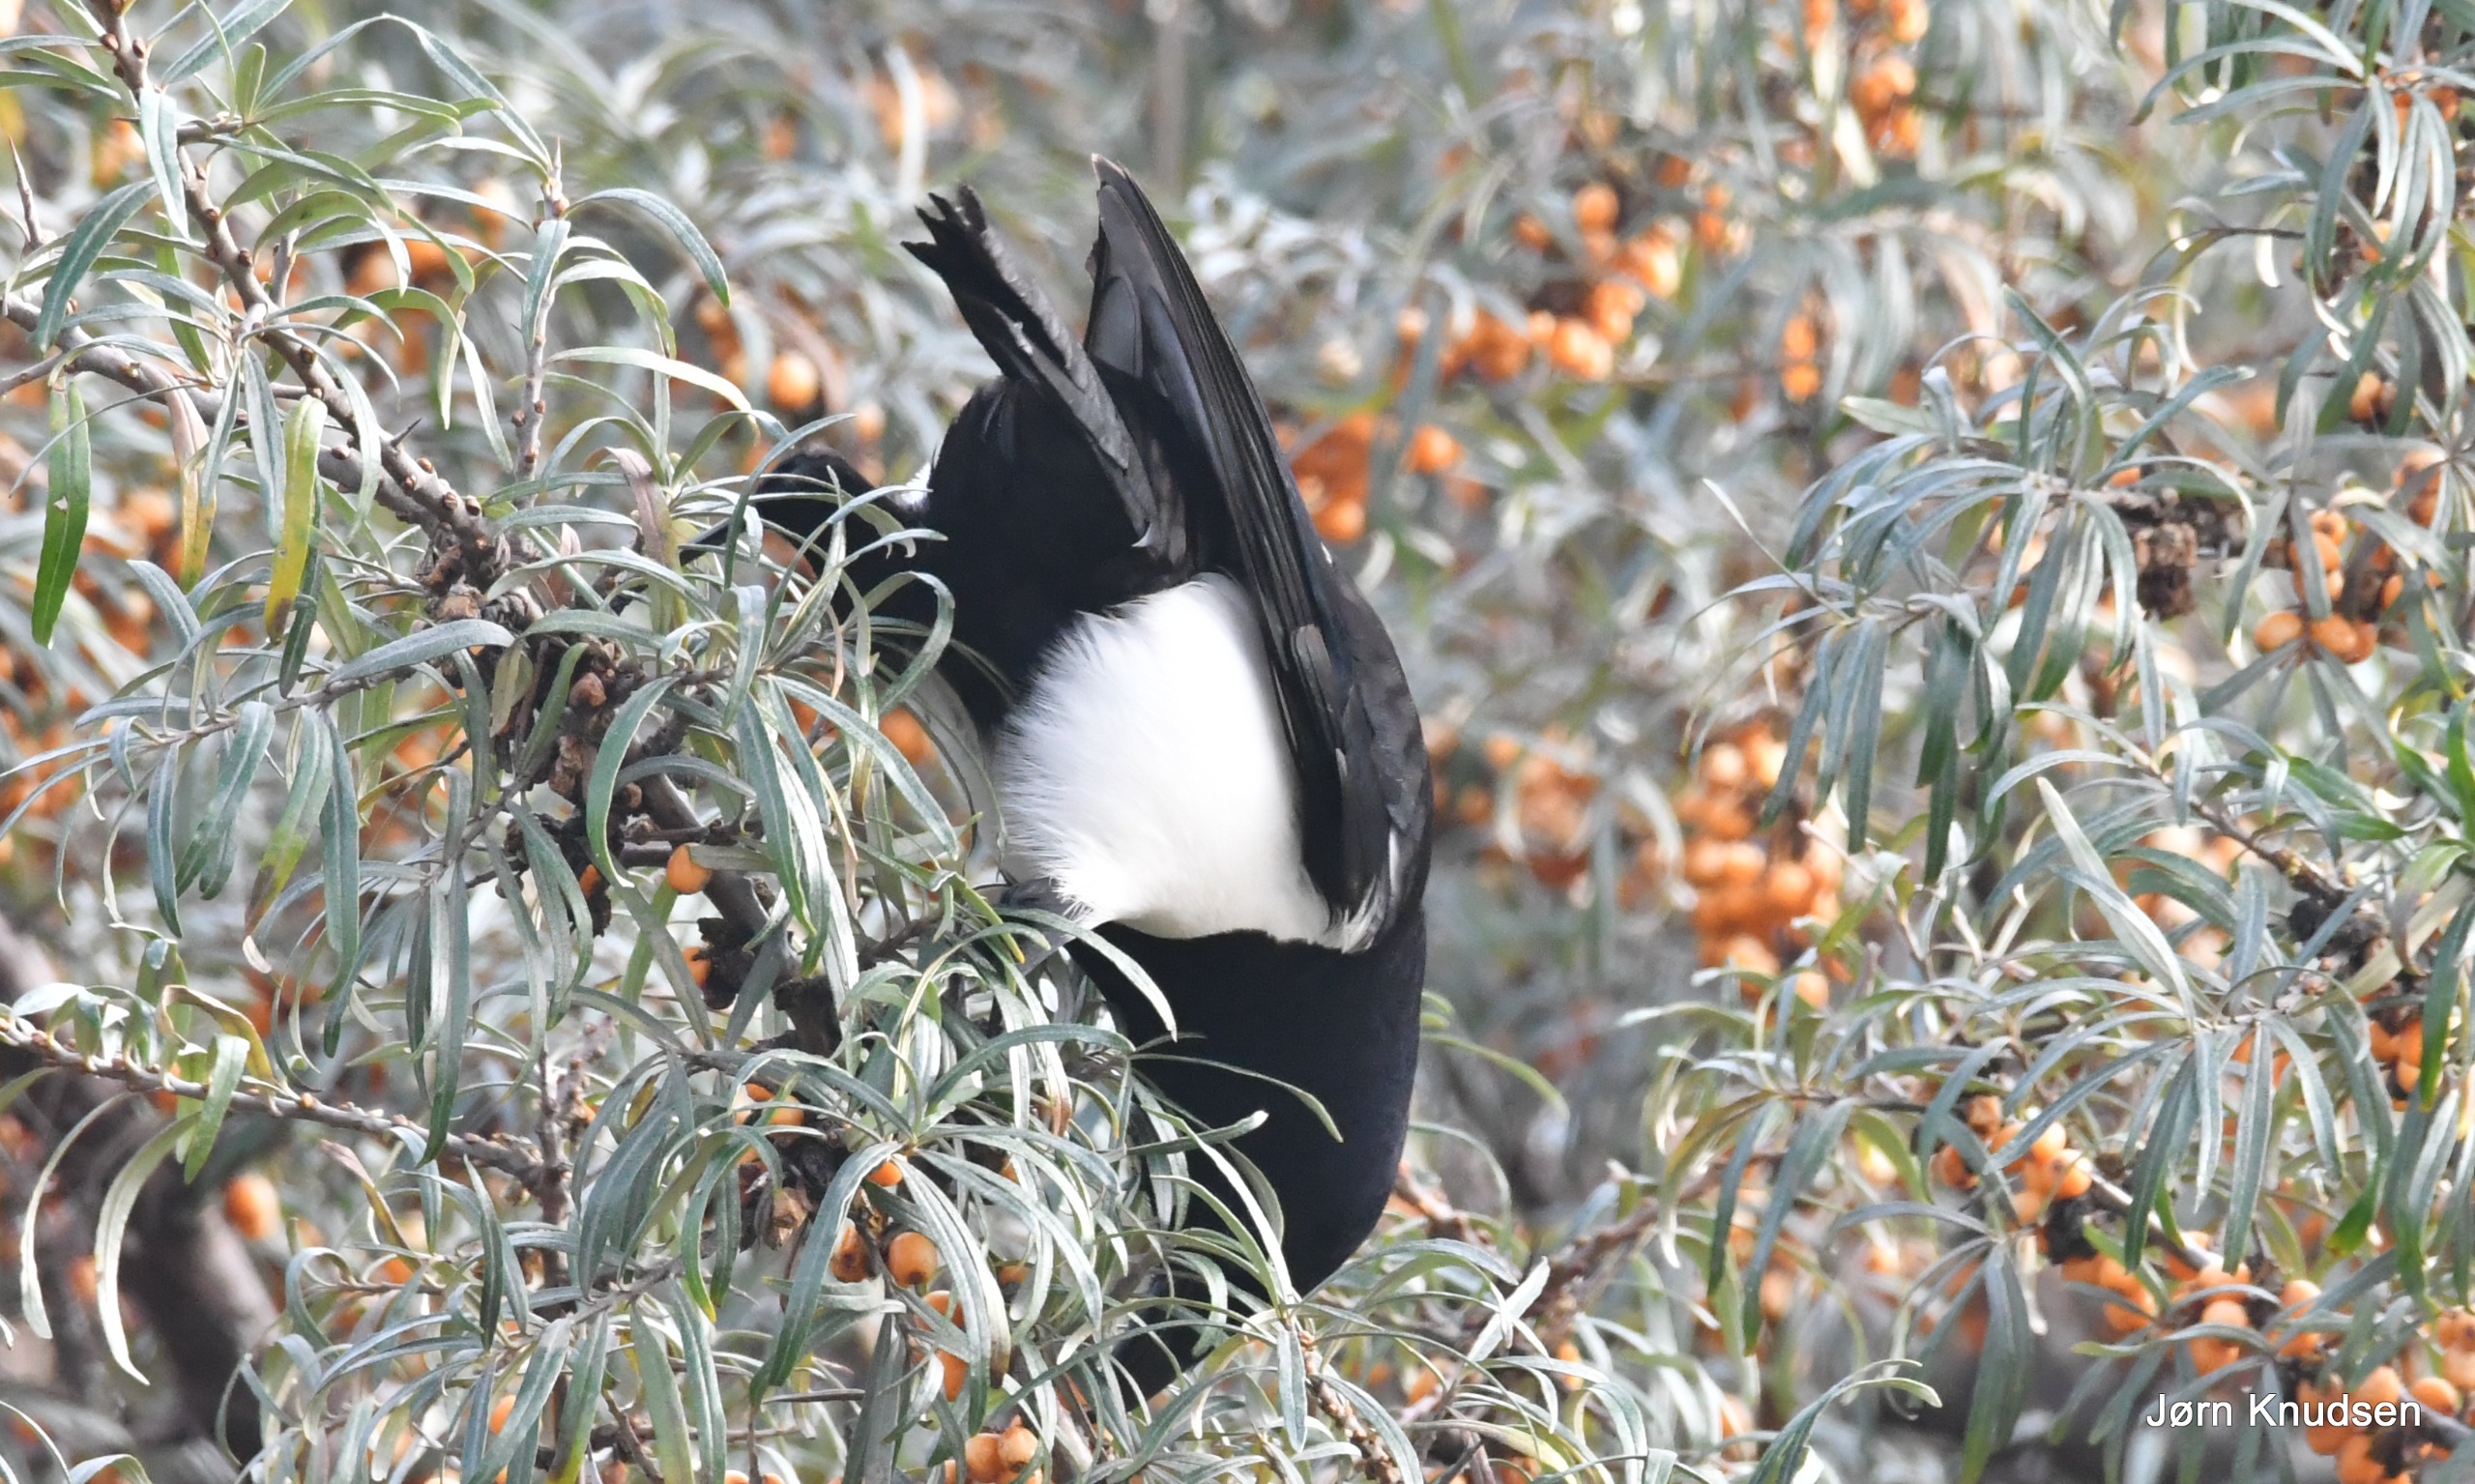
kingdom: Animalia
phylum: Chordata
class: Aves
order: Passeriformes
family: Corvidae
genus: Pica
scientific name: Pica pica
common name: Husskade
